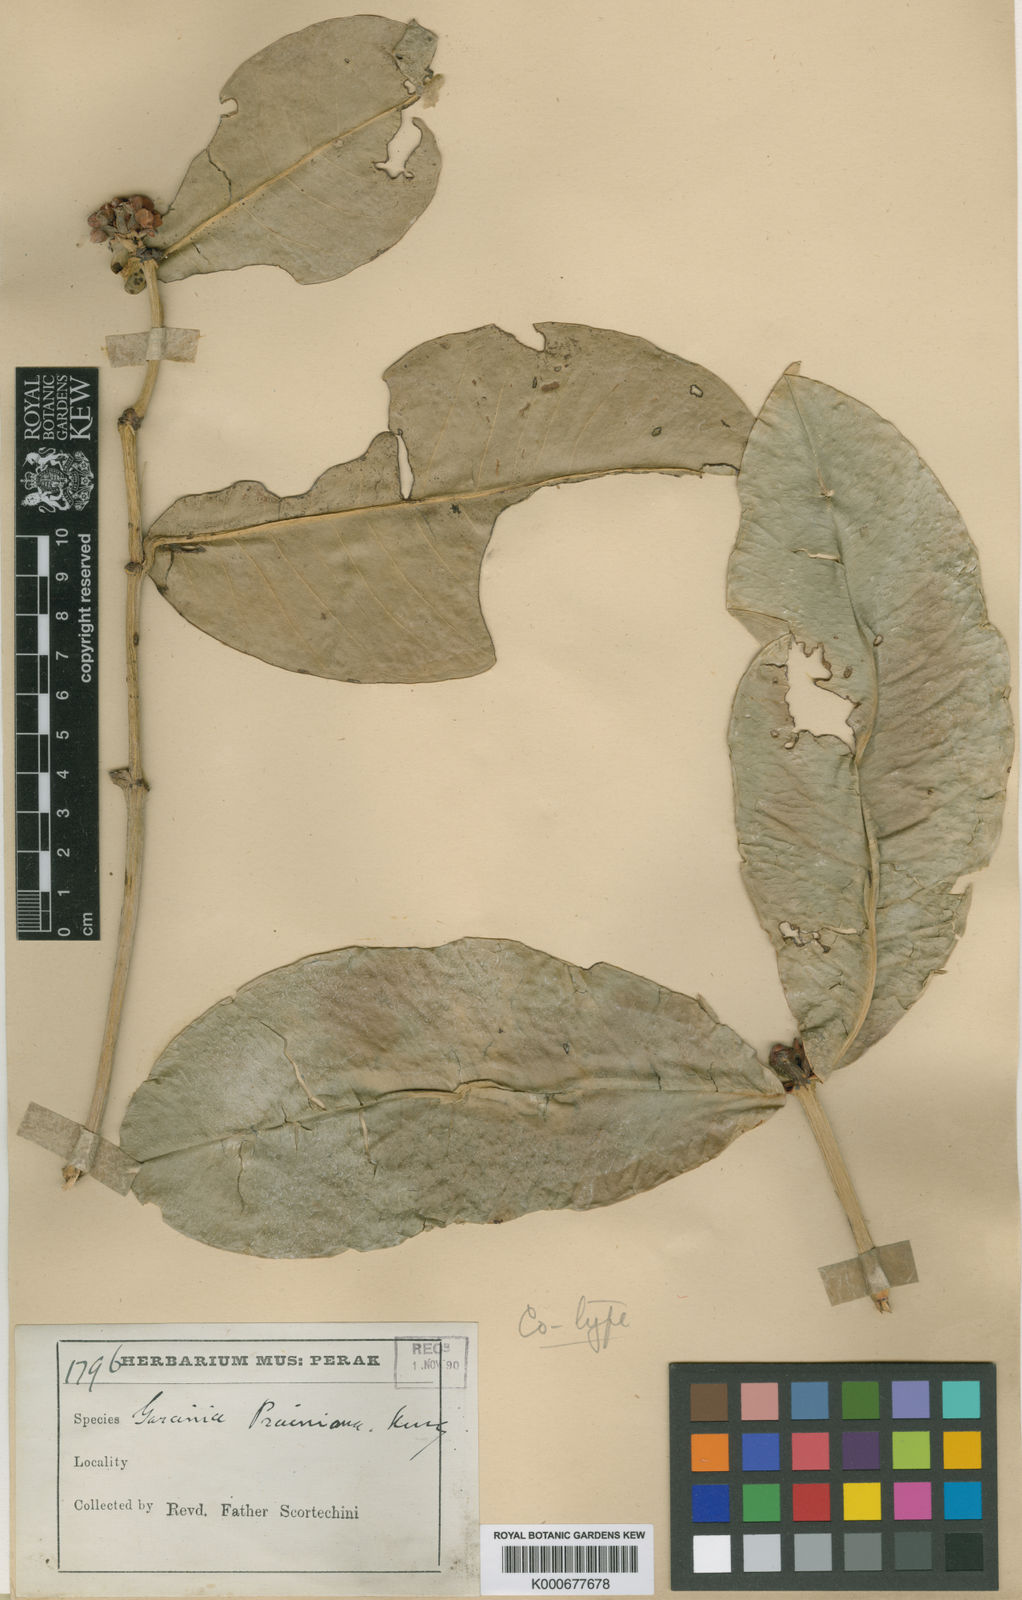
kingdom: Plantae
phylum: Tracheophyta
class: Magnoliopsida
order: Malpighiales
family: Clusiaceae
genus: Garcinia
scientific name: Garcinia prainiana
